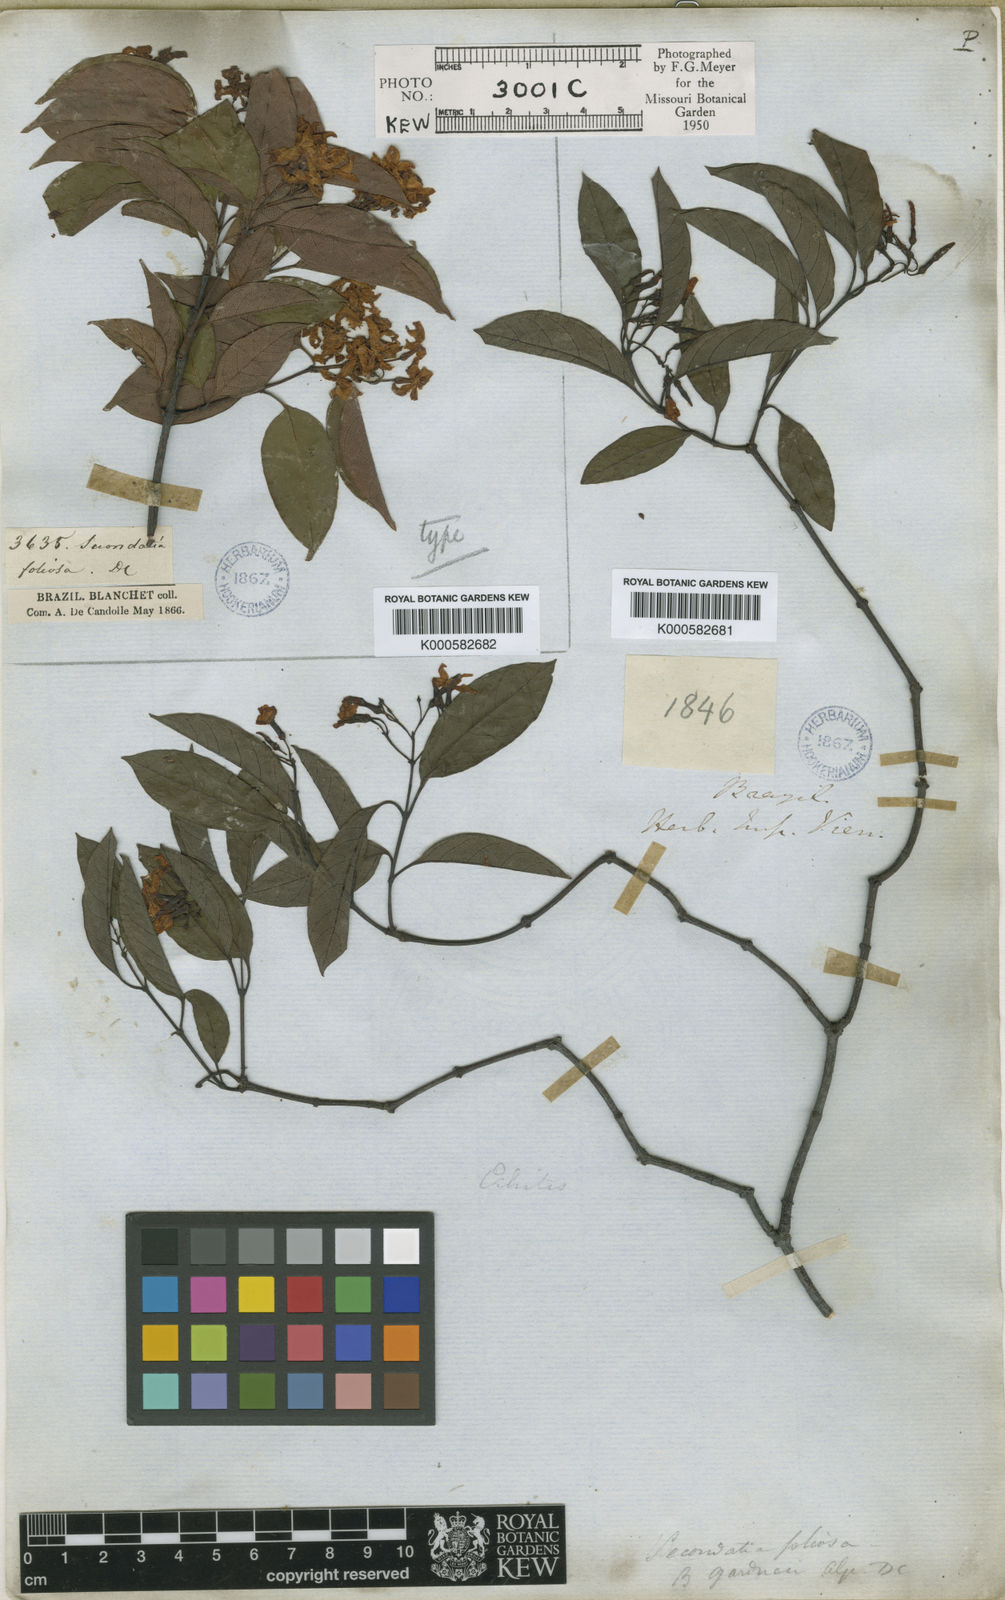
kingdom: Plantae
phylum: Tracheophyta
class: Magnoliopsida
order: Gentianales
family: Apocynaceae
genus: Secondatia
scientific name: Secondatia floribunda
